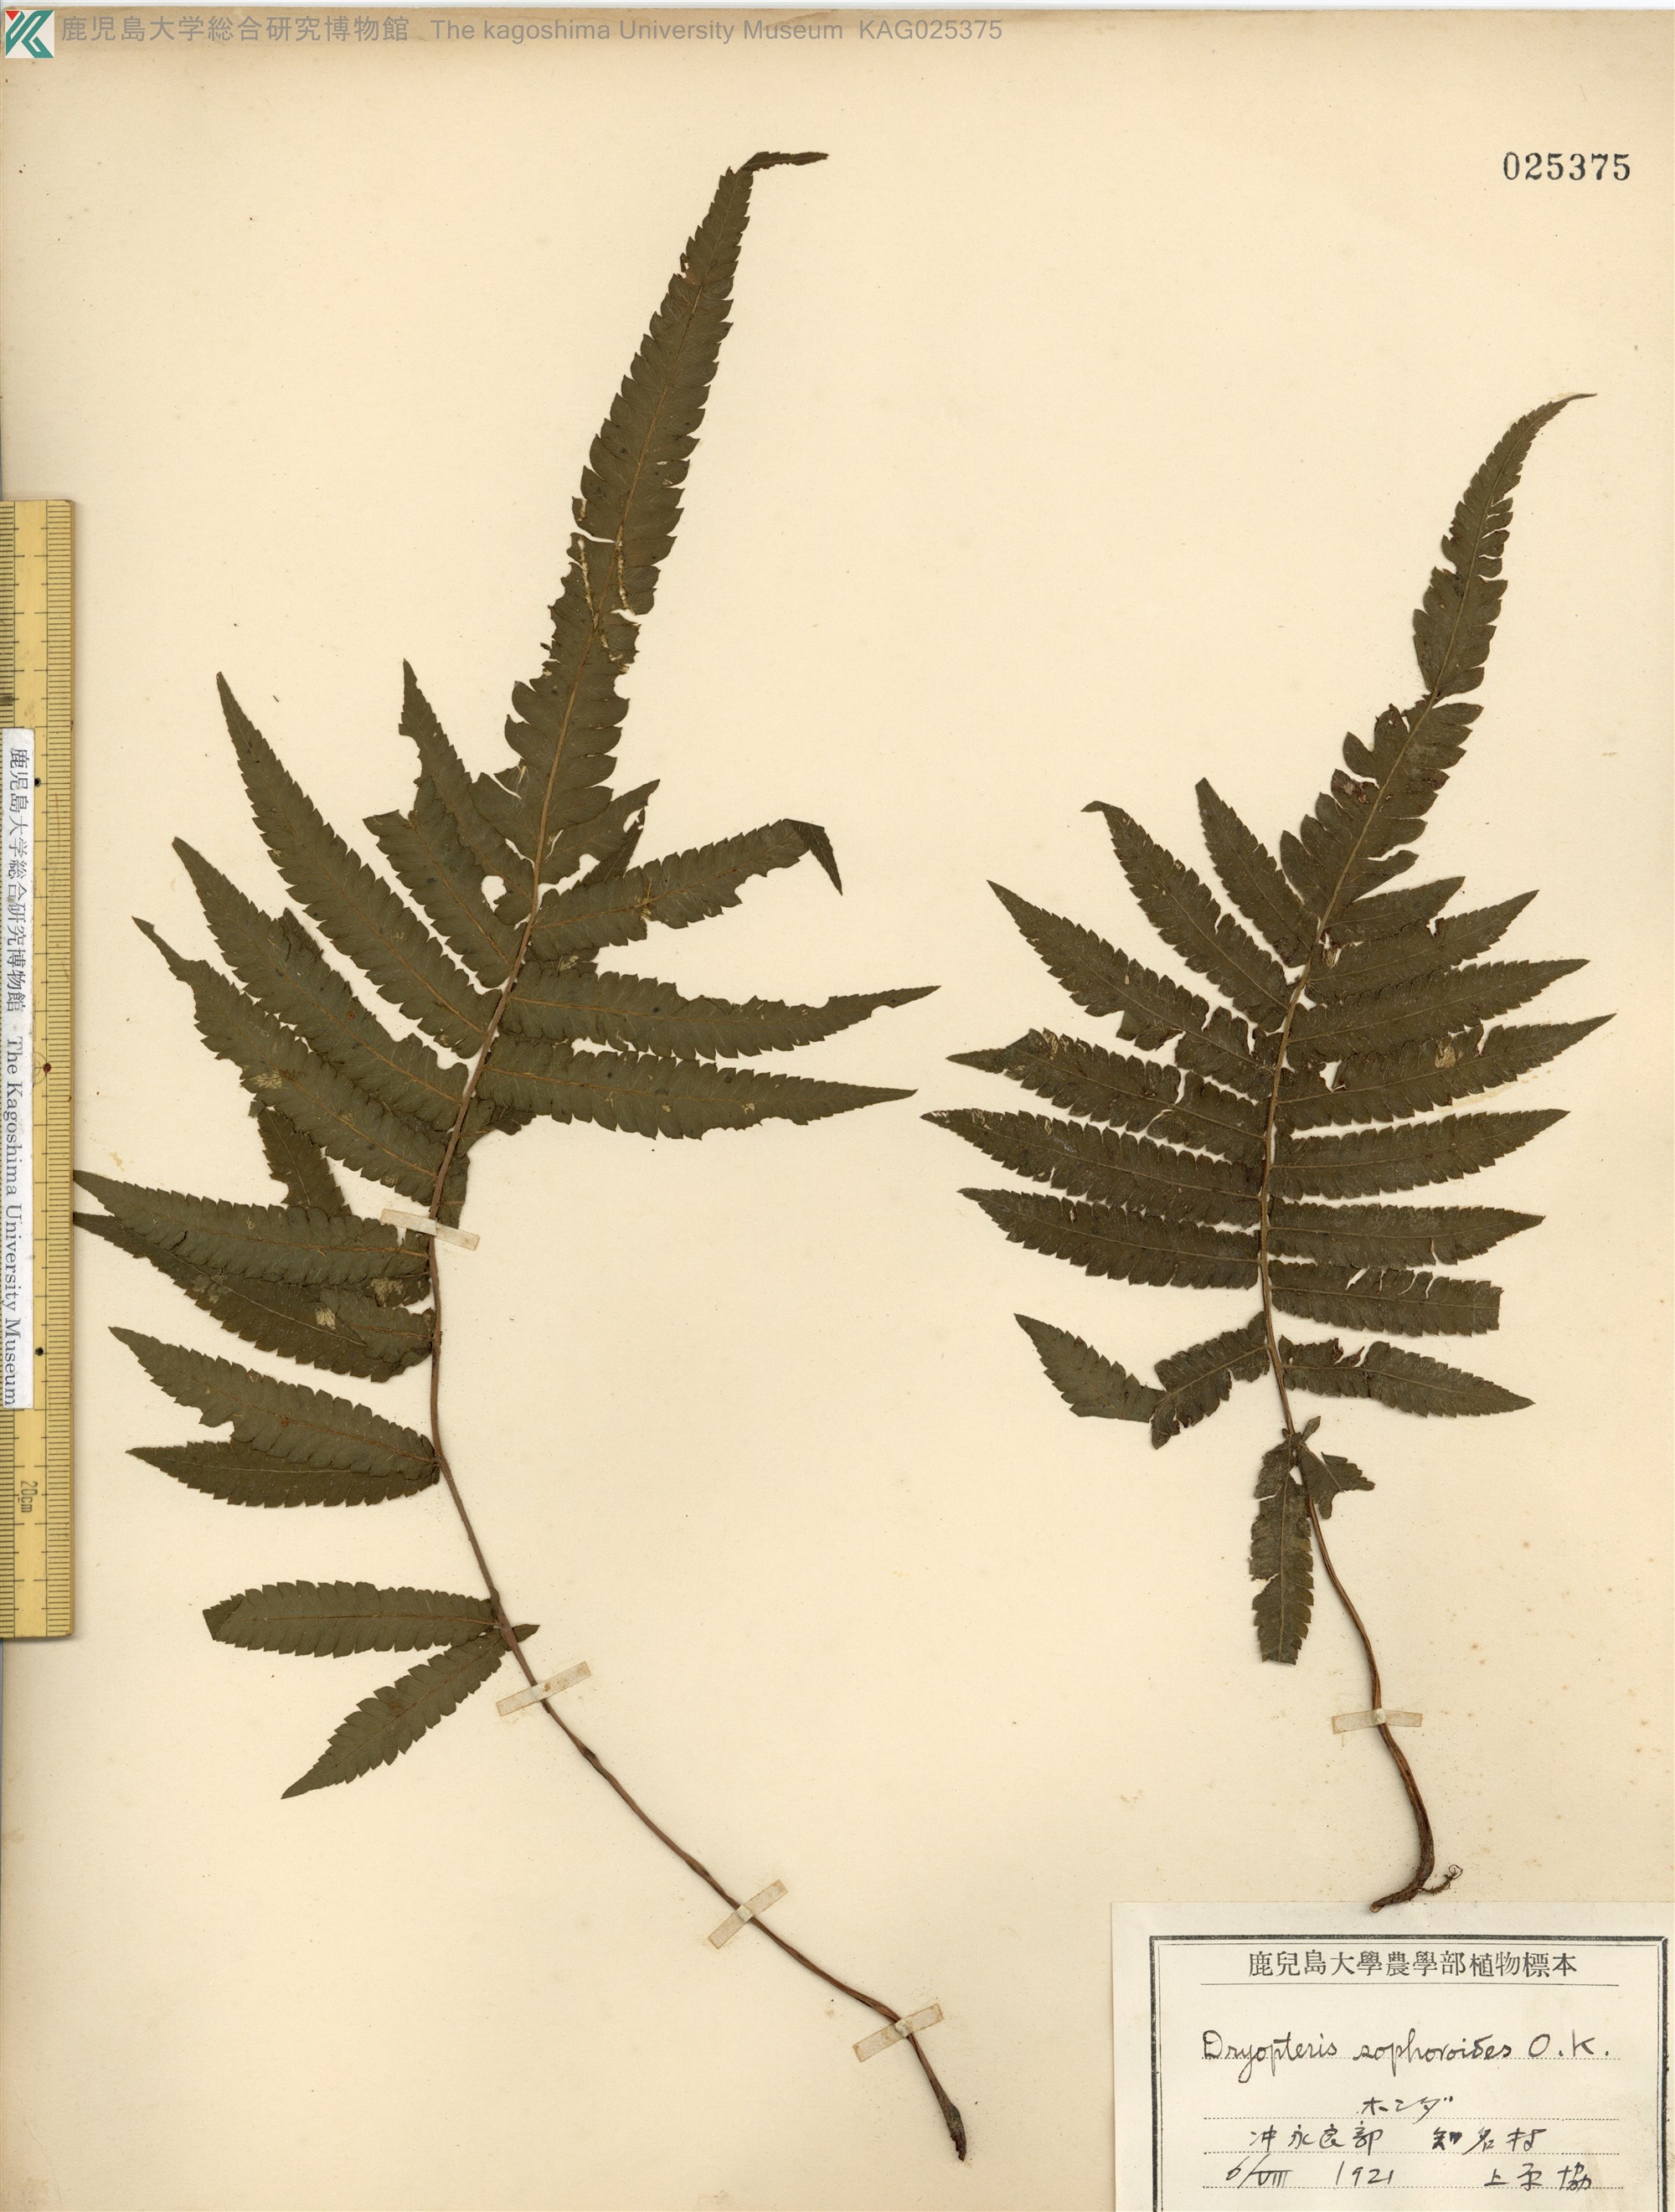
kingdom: Plantae
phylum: Tracheophyta
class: Polypodiopsida
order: Polypodiales
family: Thelypteridaceae
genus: Christella
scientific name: Christella acuminata
